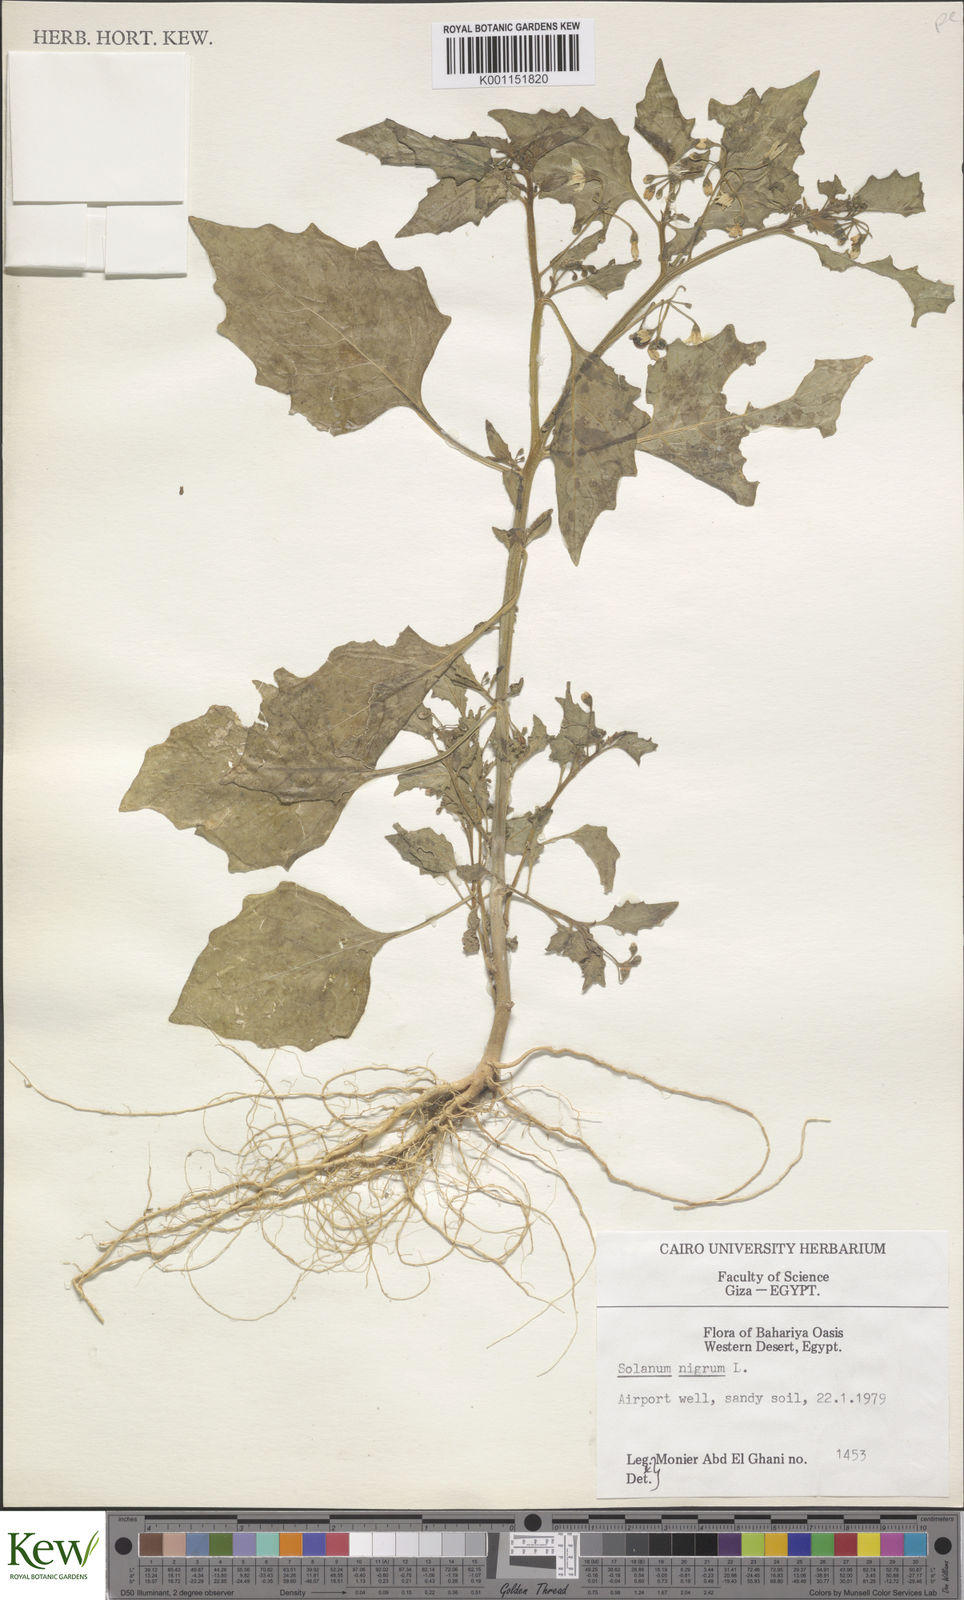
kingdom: Plantae
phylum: Tracheophyta
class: Magnoliopsida
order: Solanales
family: Solanaceae
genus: Solanum
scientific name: Solanum nigrum
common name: Black nightshade
